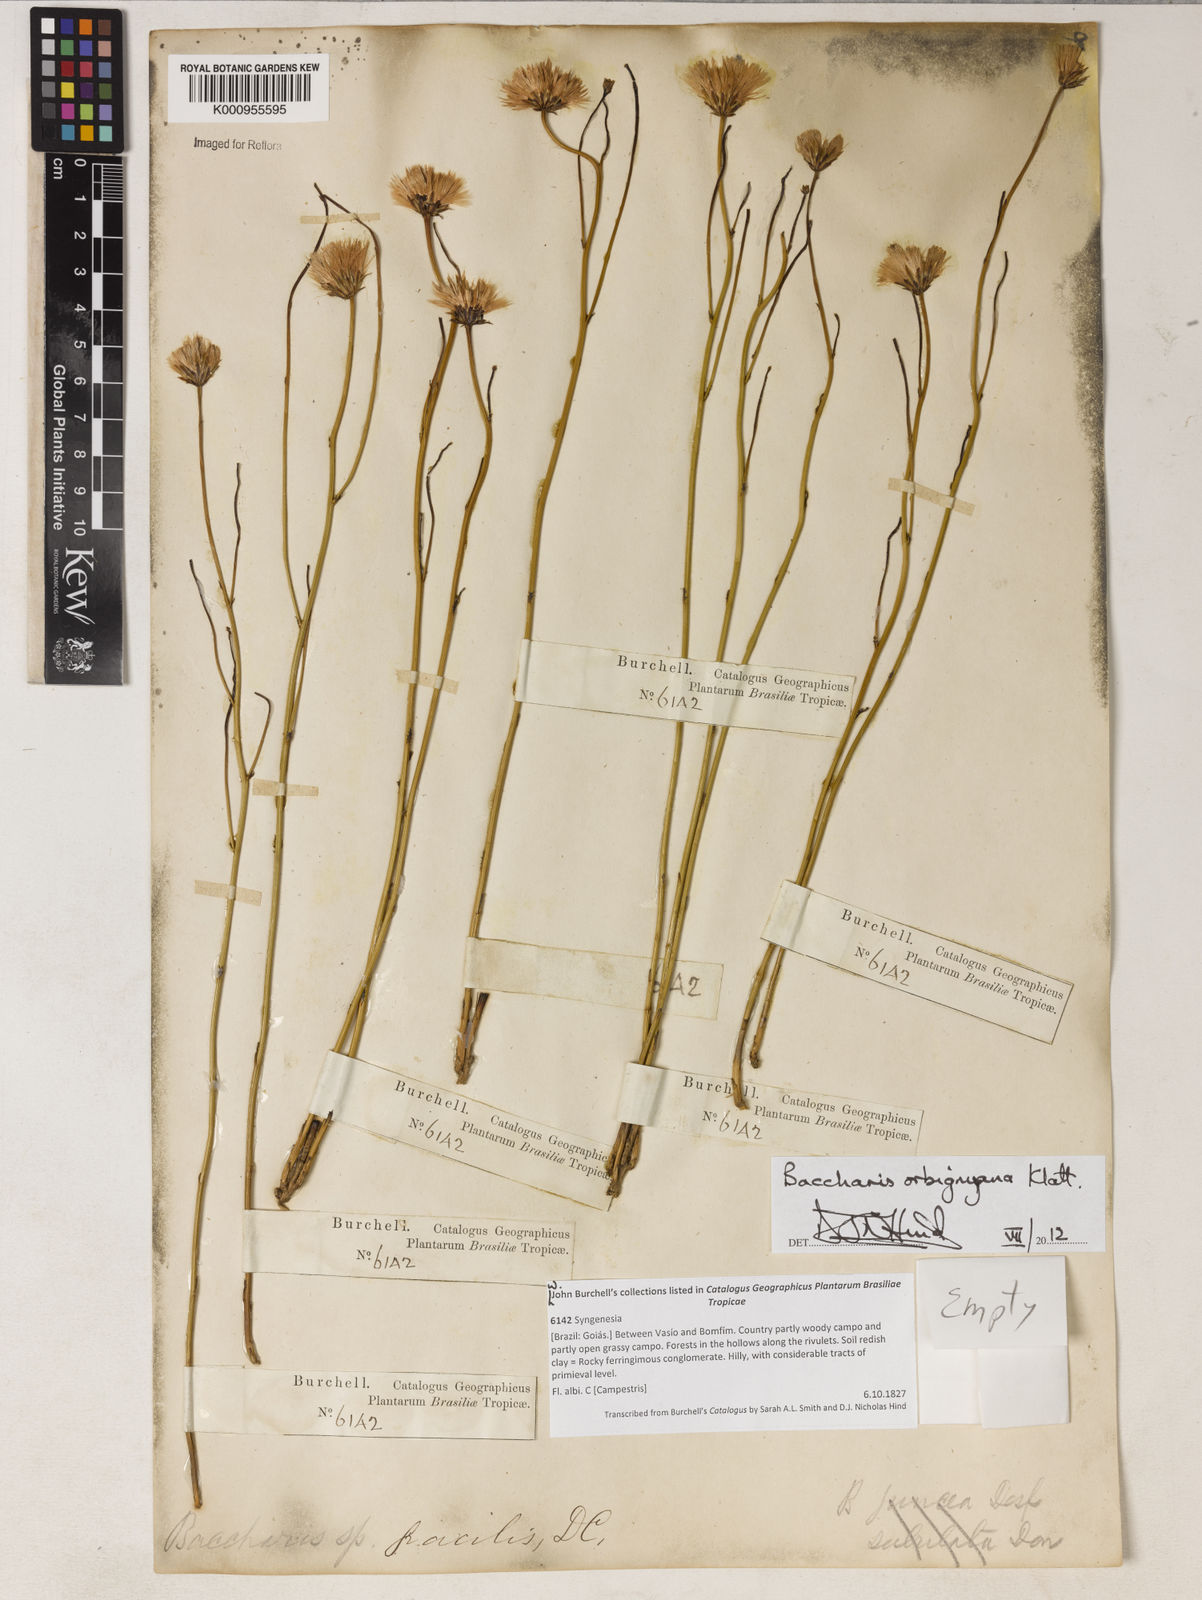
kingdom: Plantae
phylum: Tracheophyta
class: Magnoliopsida
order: Asterales
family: Asteraceae
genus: Baccharis
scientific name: Baccharis orbignyana
